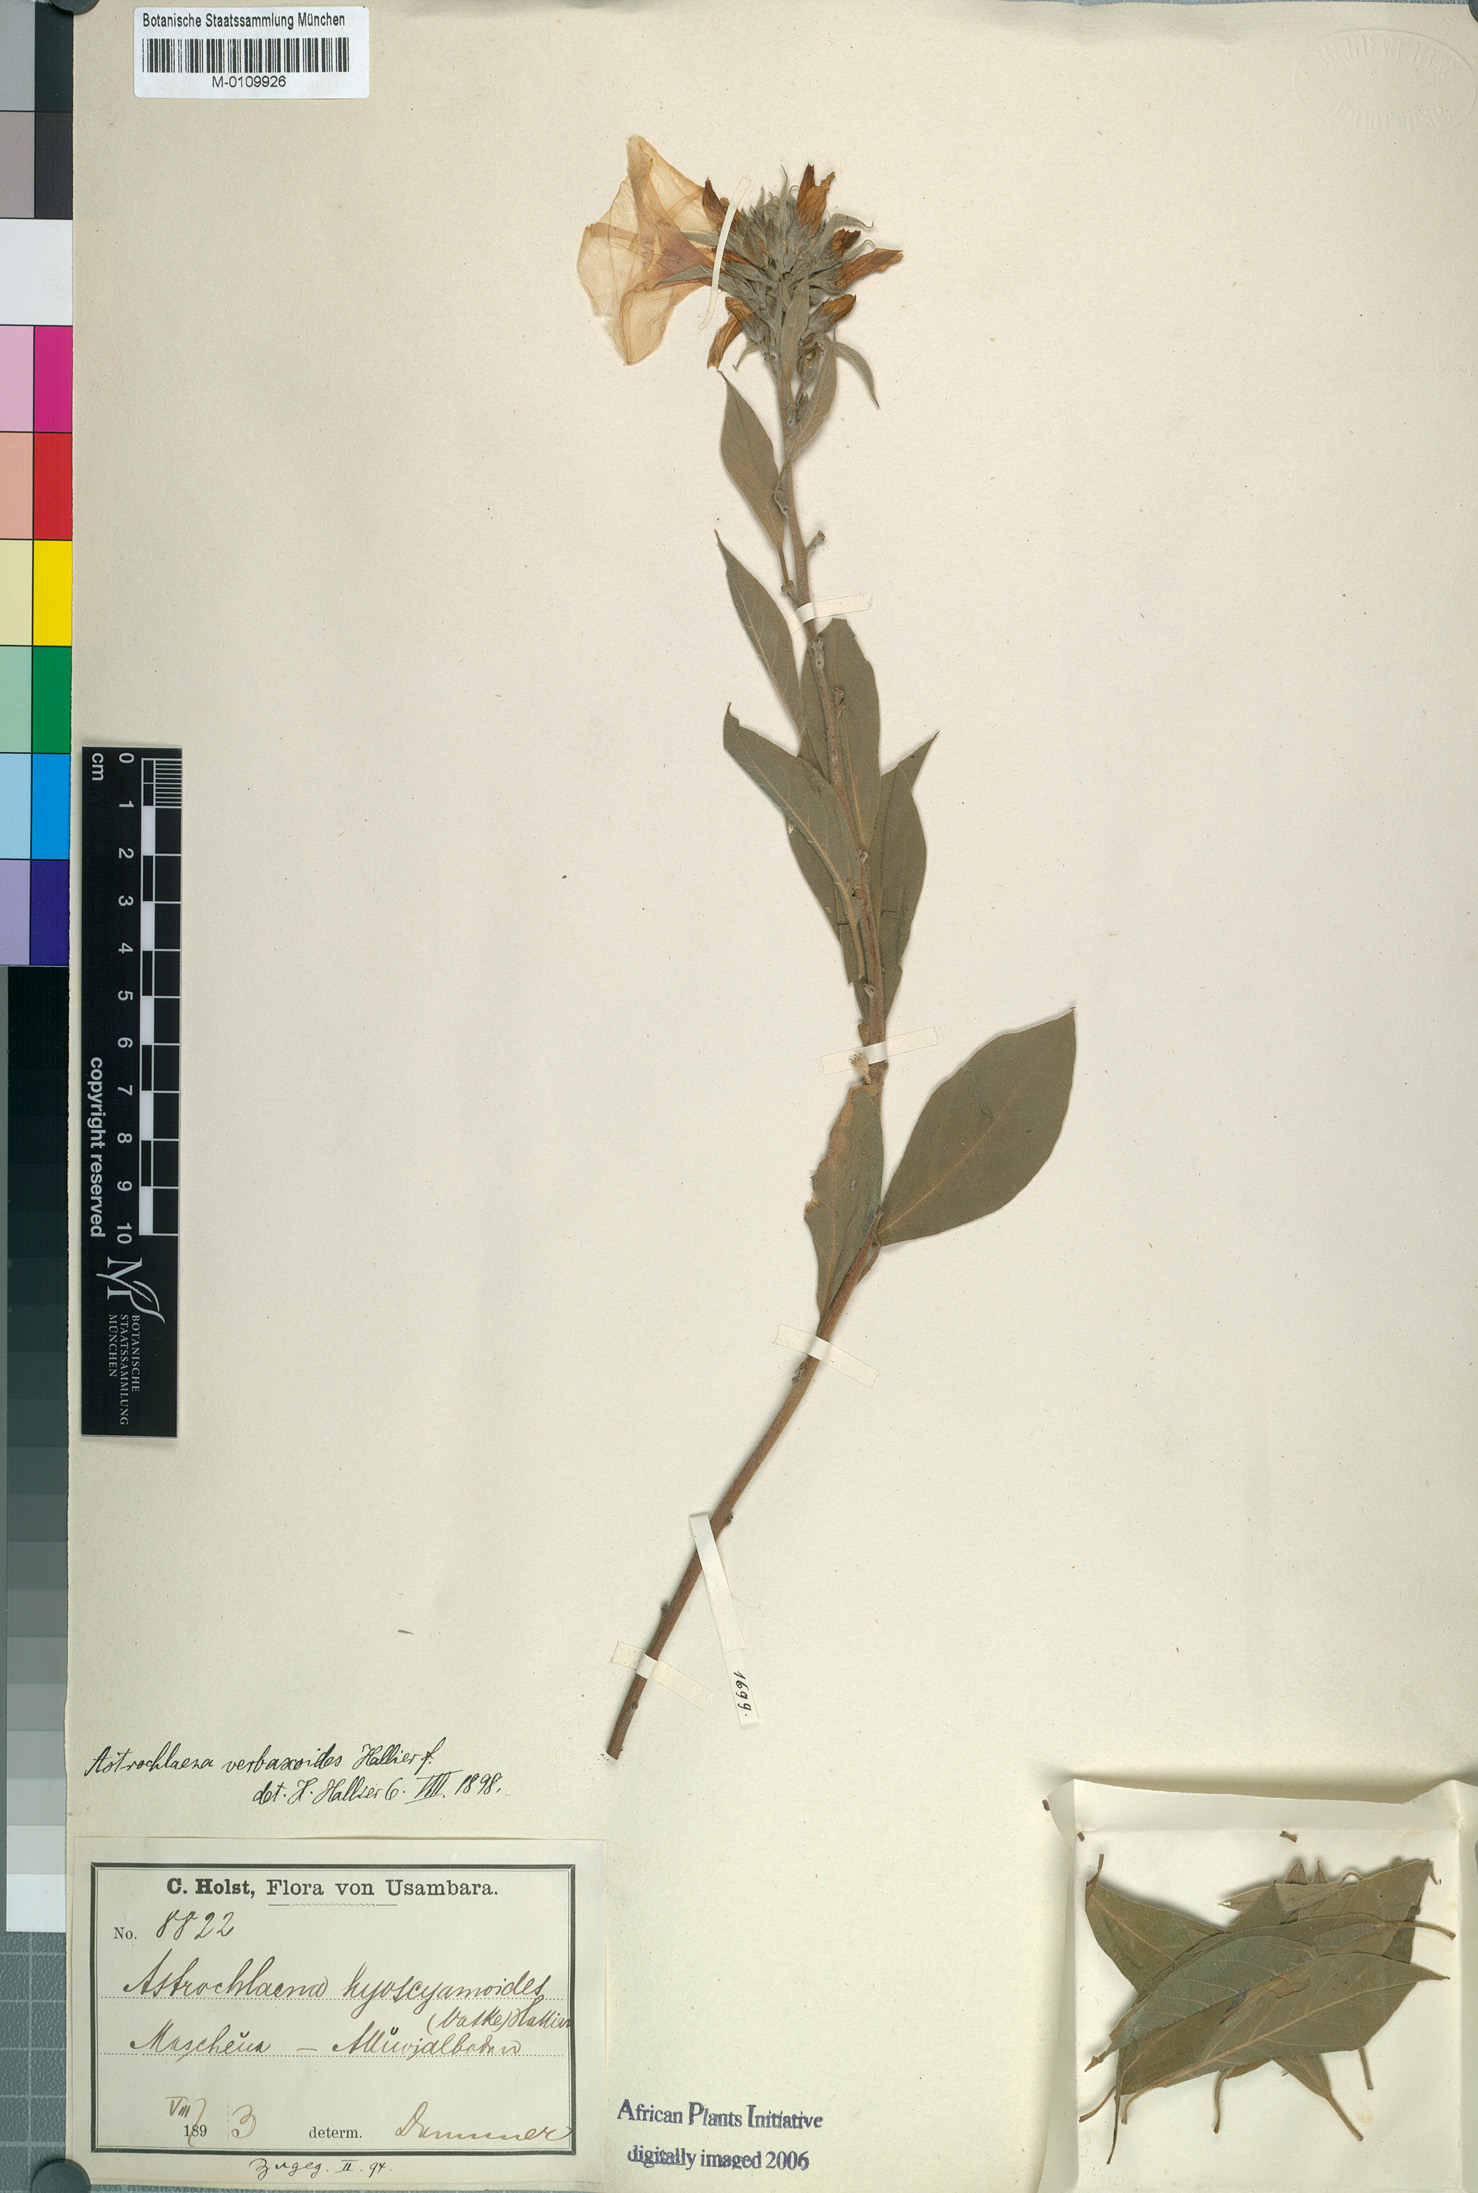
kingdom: Plantae
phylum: Tracheophyta
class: Magnoliopsida
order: Solanales
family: Convolvulaceae
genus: Astripomoea
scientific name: Astripomoea hyoscyamoides
